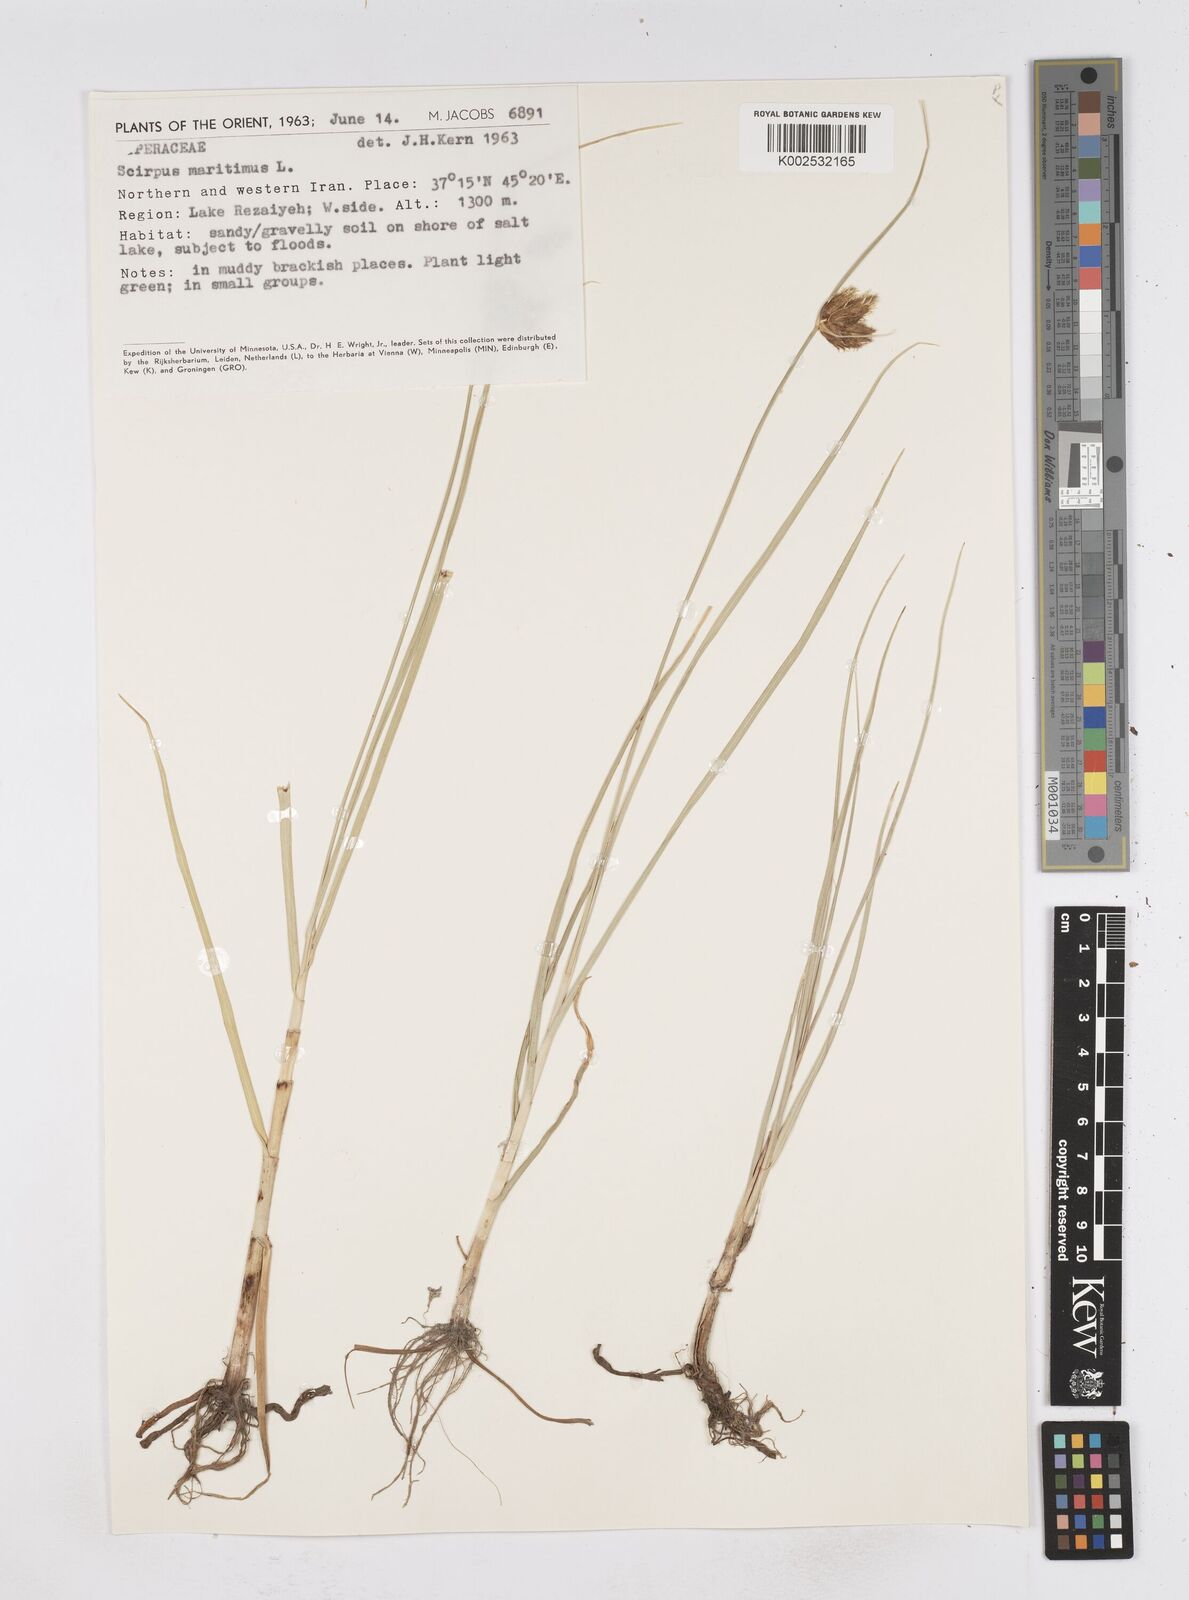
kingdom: Plantae
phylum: Tracheophyta
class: Liliopsida
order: Poales
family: Cyperaceae
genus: Bolboschoenus
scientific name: Bolboschoenus maritimus
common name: Sea club-rush
